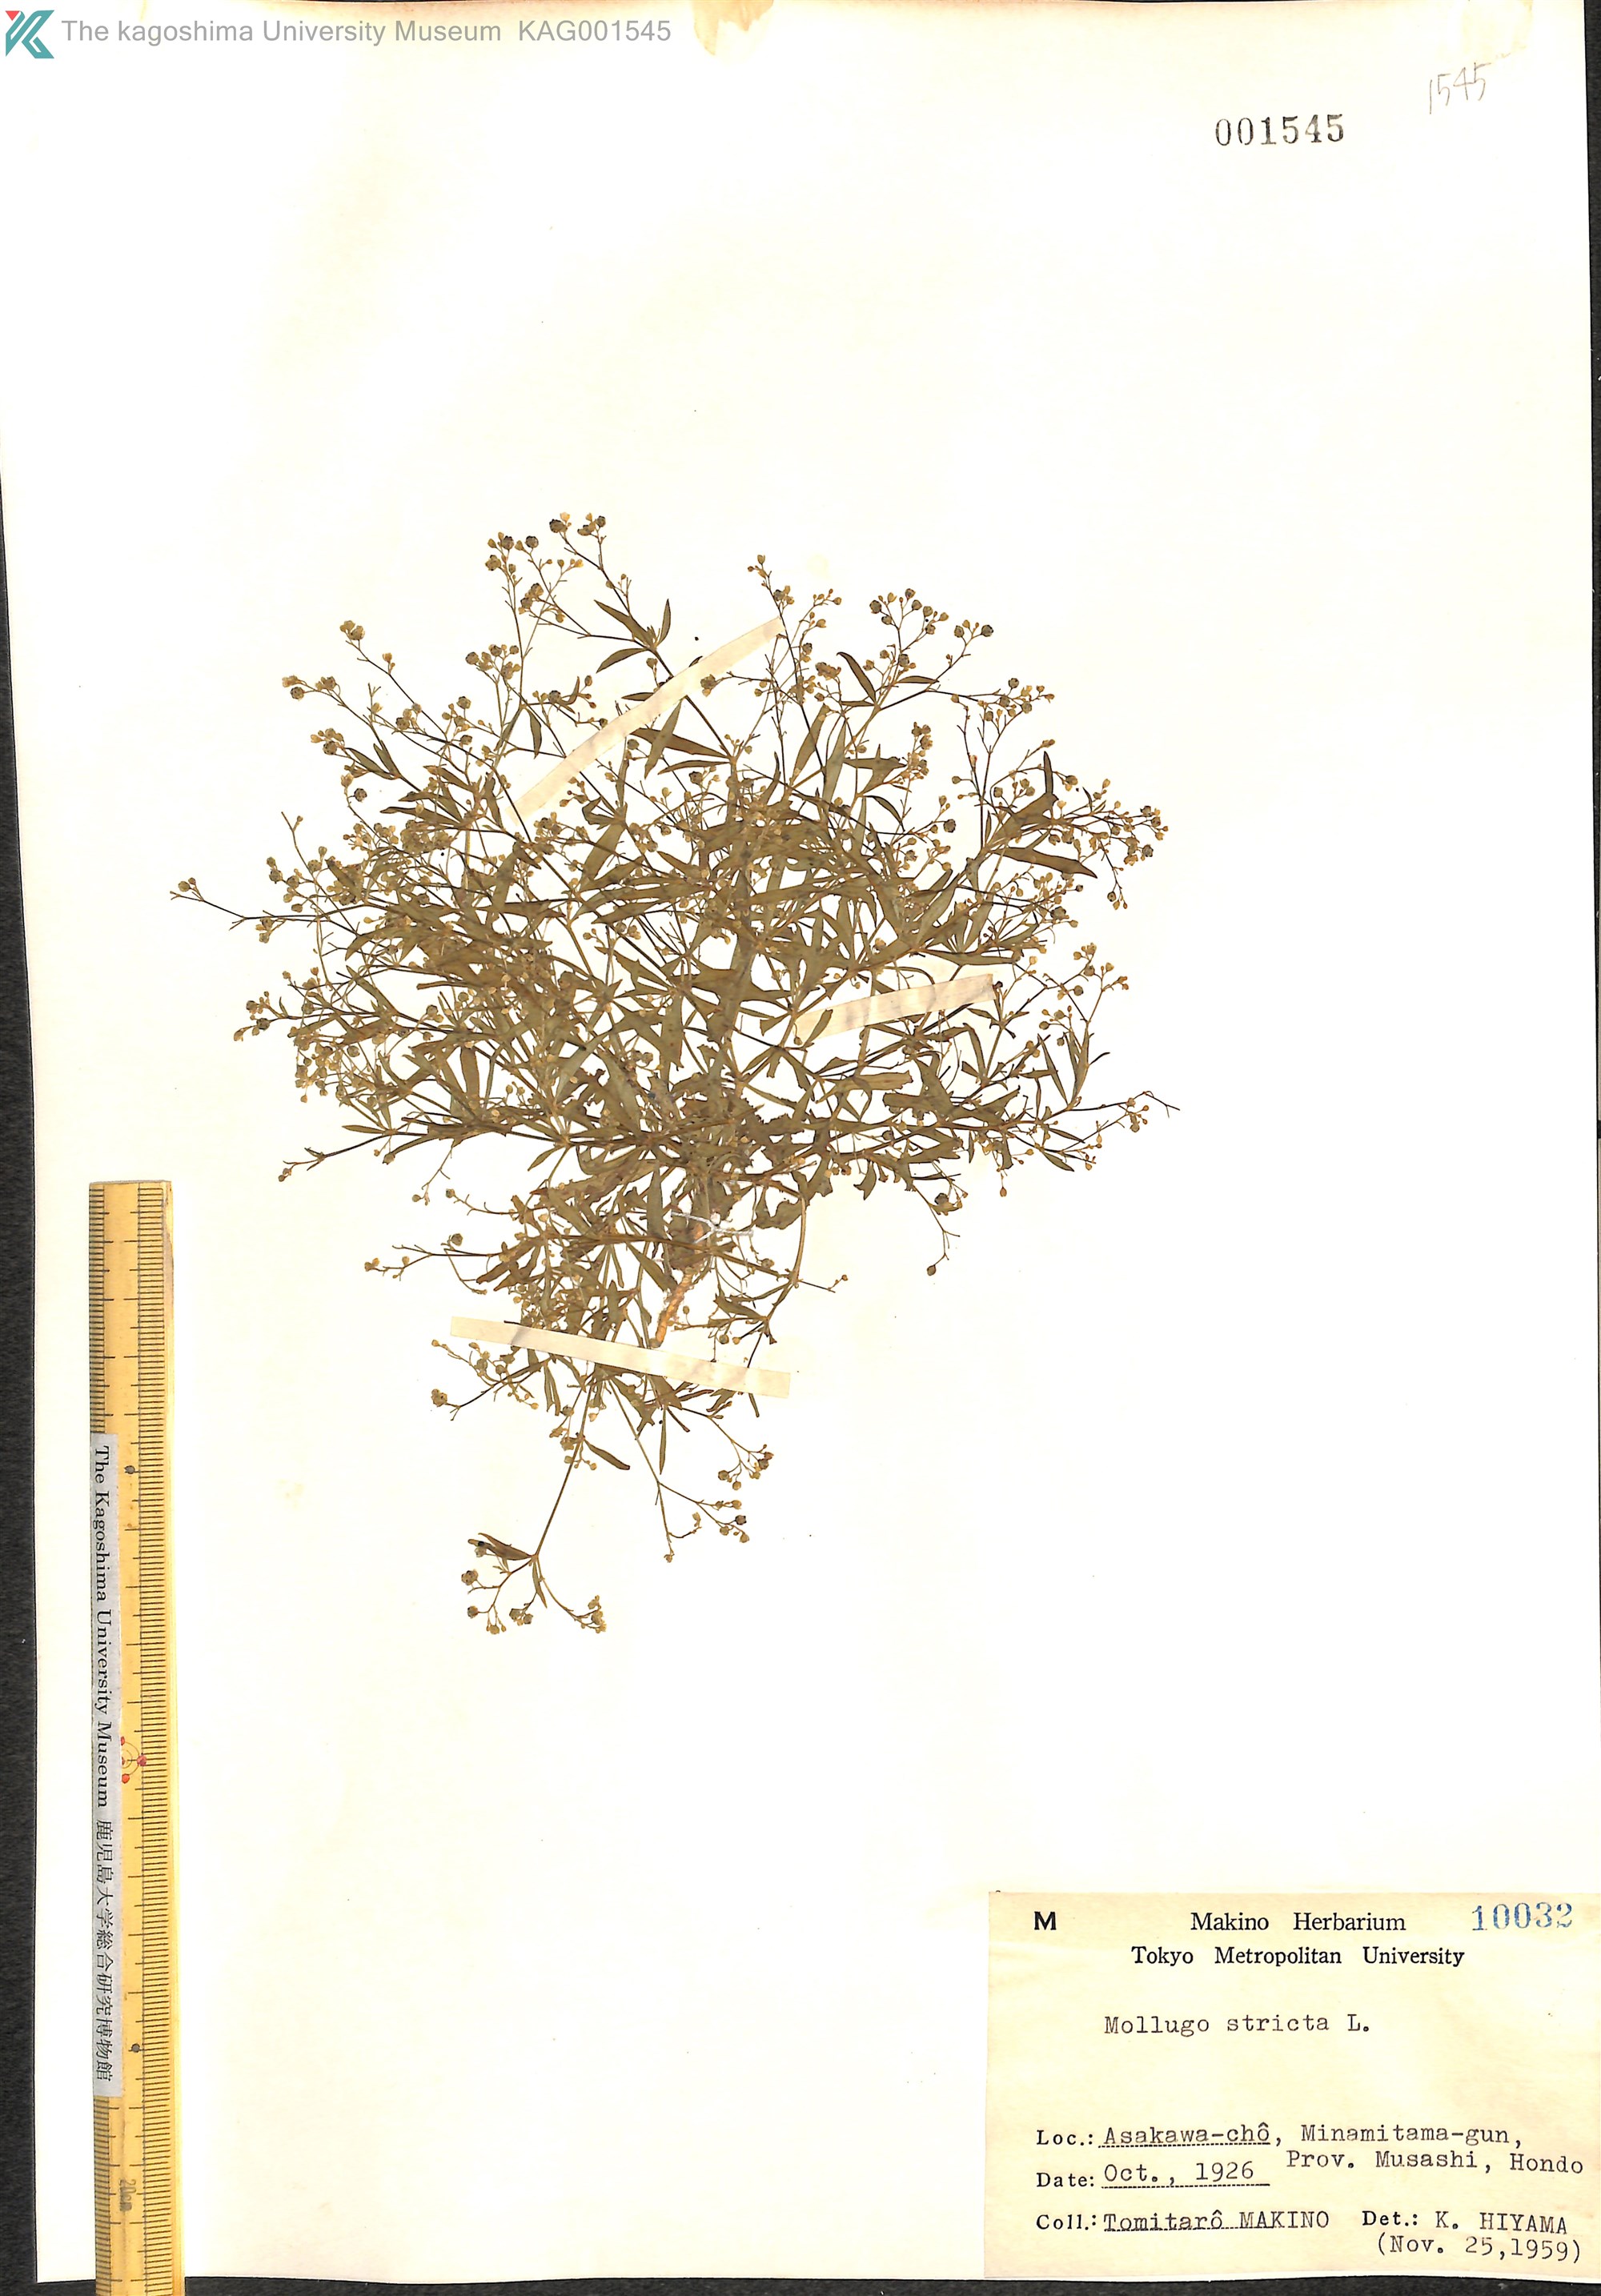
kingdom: Plantae
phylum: Tracheophyta
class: Magnoliopsida
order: Caryophyllales
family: Molluginaceae
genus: Trigastrotheca
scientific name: Trigastrotheca stricta
